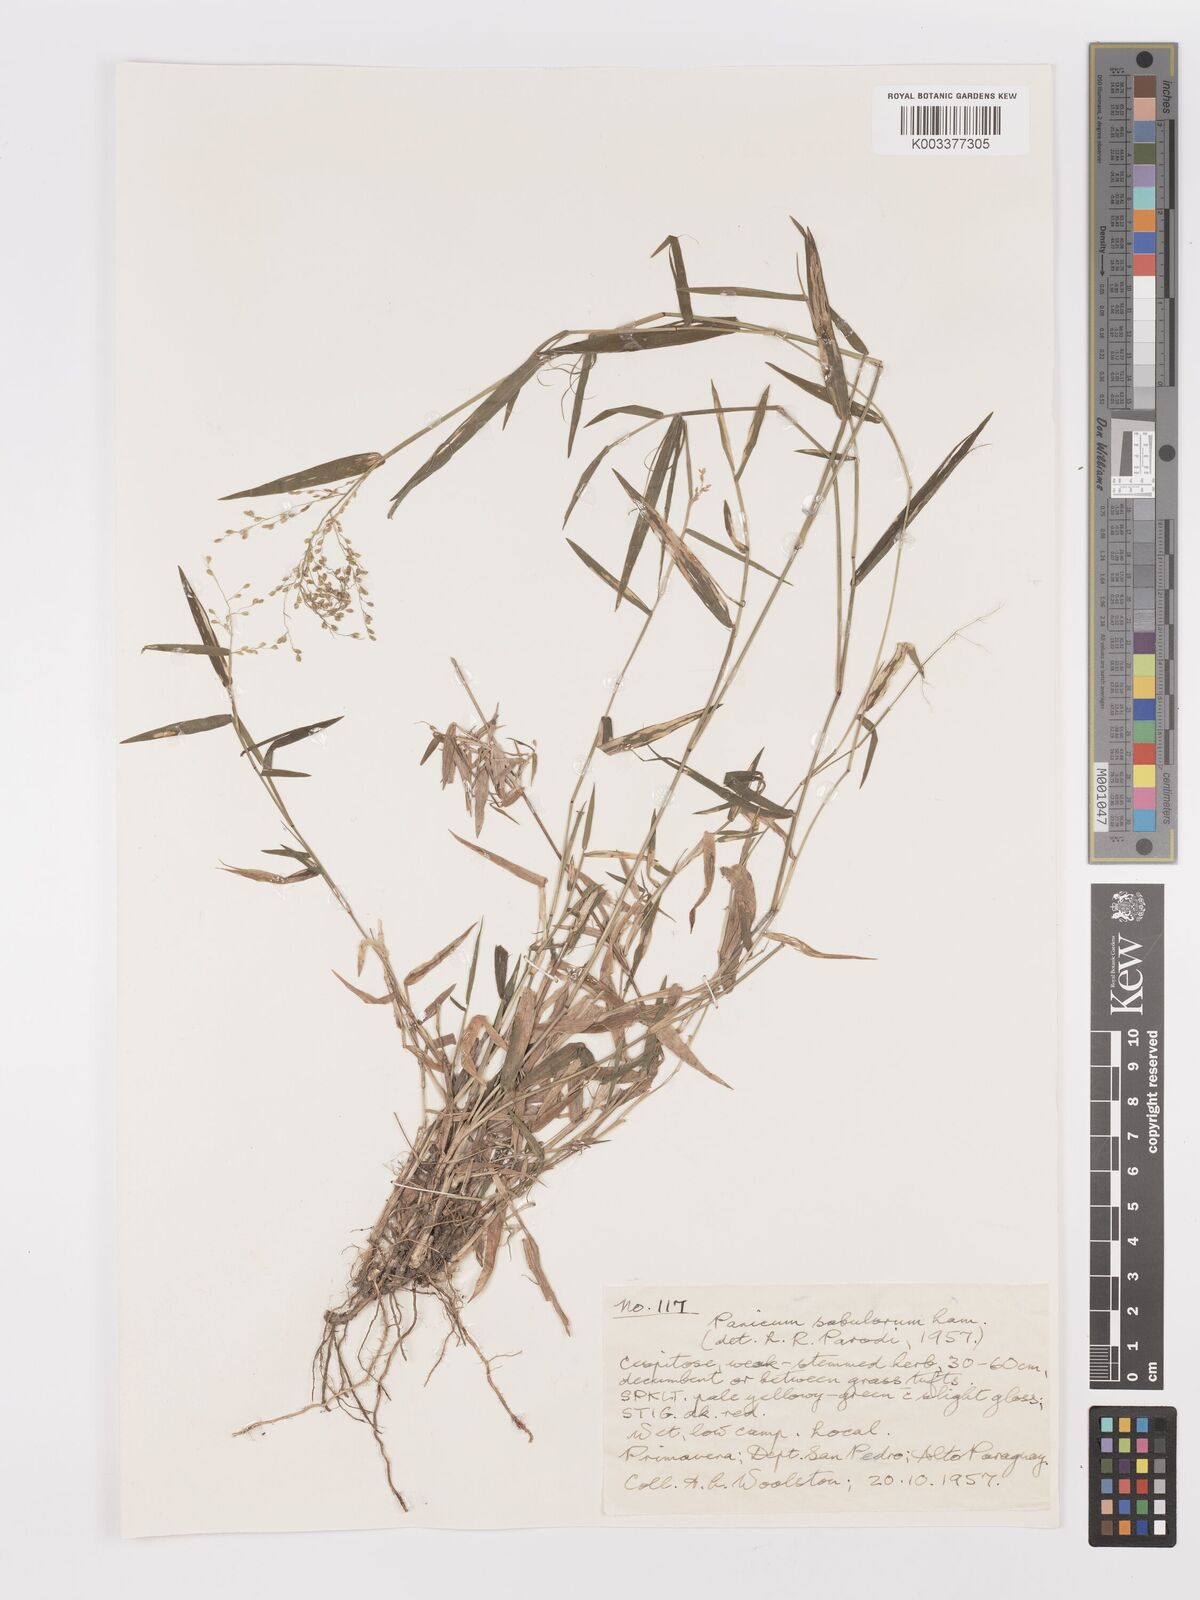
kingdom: Plantae
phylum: Tracheophyta
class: Liliopsida
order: Poales
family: Poaceae
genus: Dichanthelium
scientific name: Dichanthelium stigmosum
